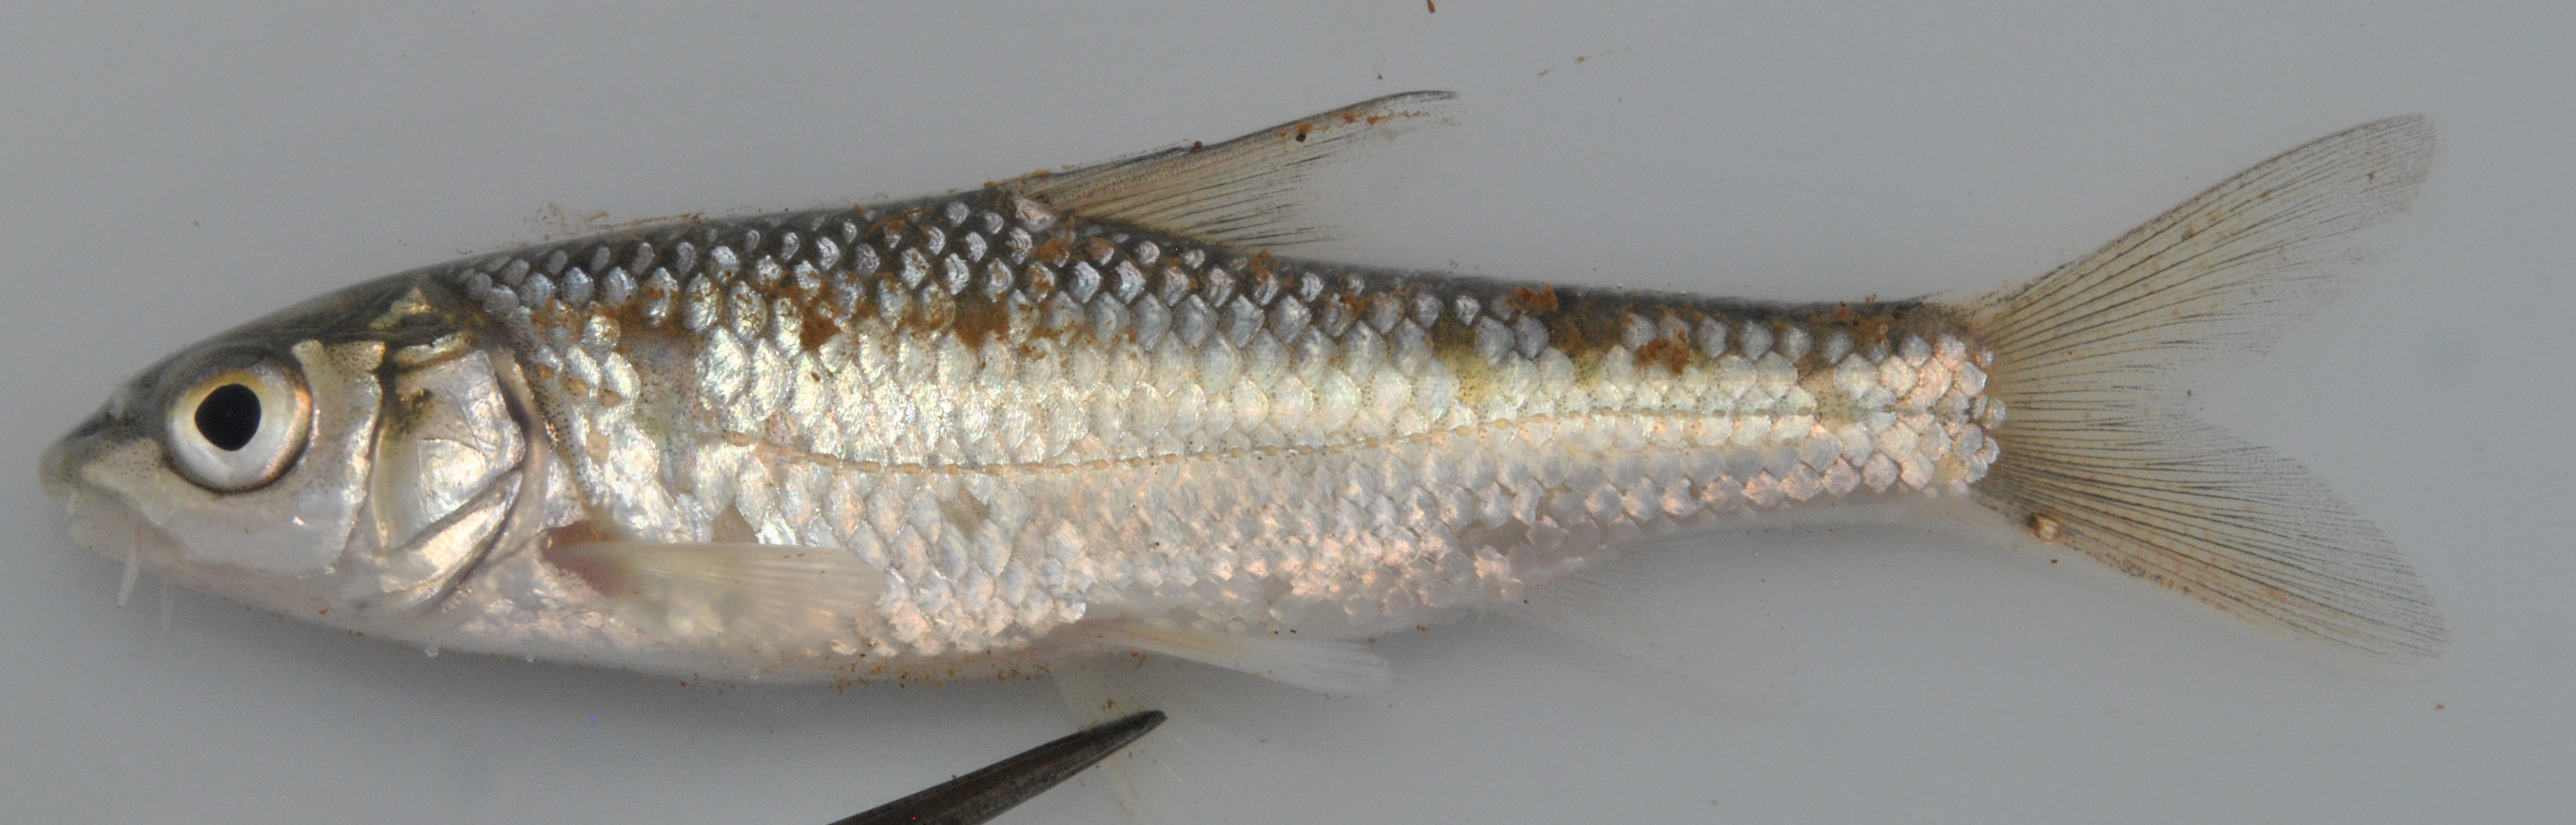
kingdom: Animalia
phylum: Chordata
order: Cypriniformes
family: Cyprinidae
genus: Labeobarbus
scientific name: Labeobarbus natalensis
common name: Scaly
